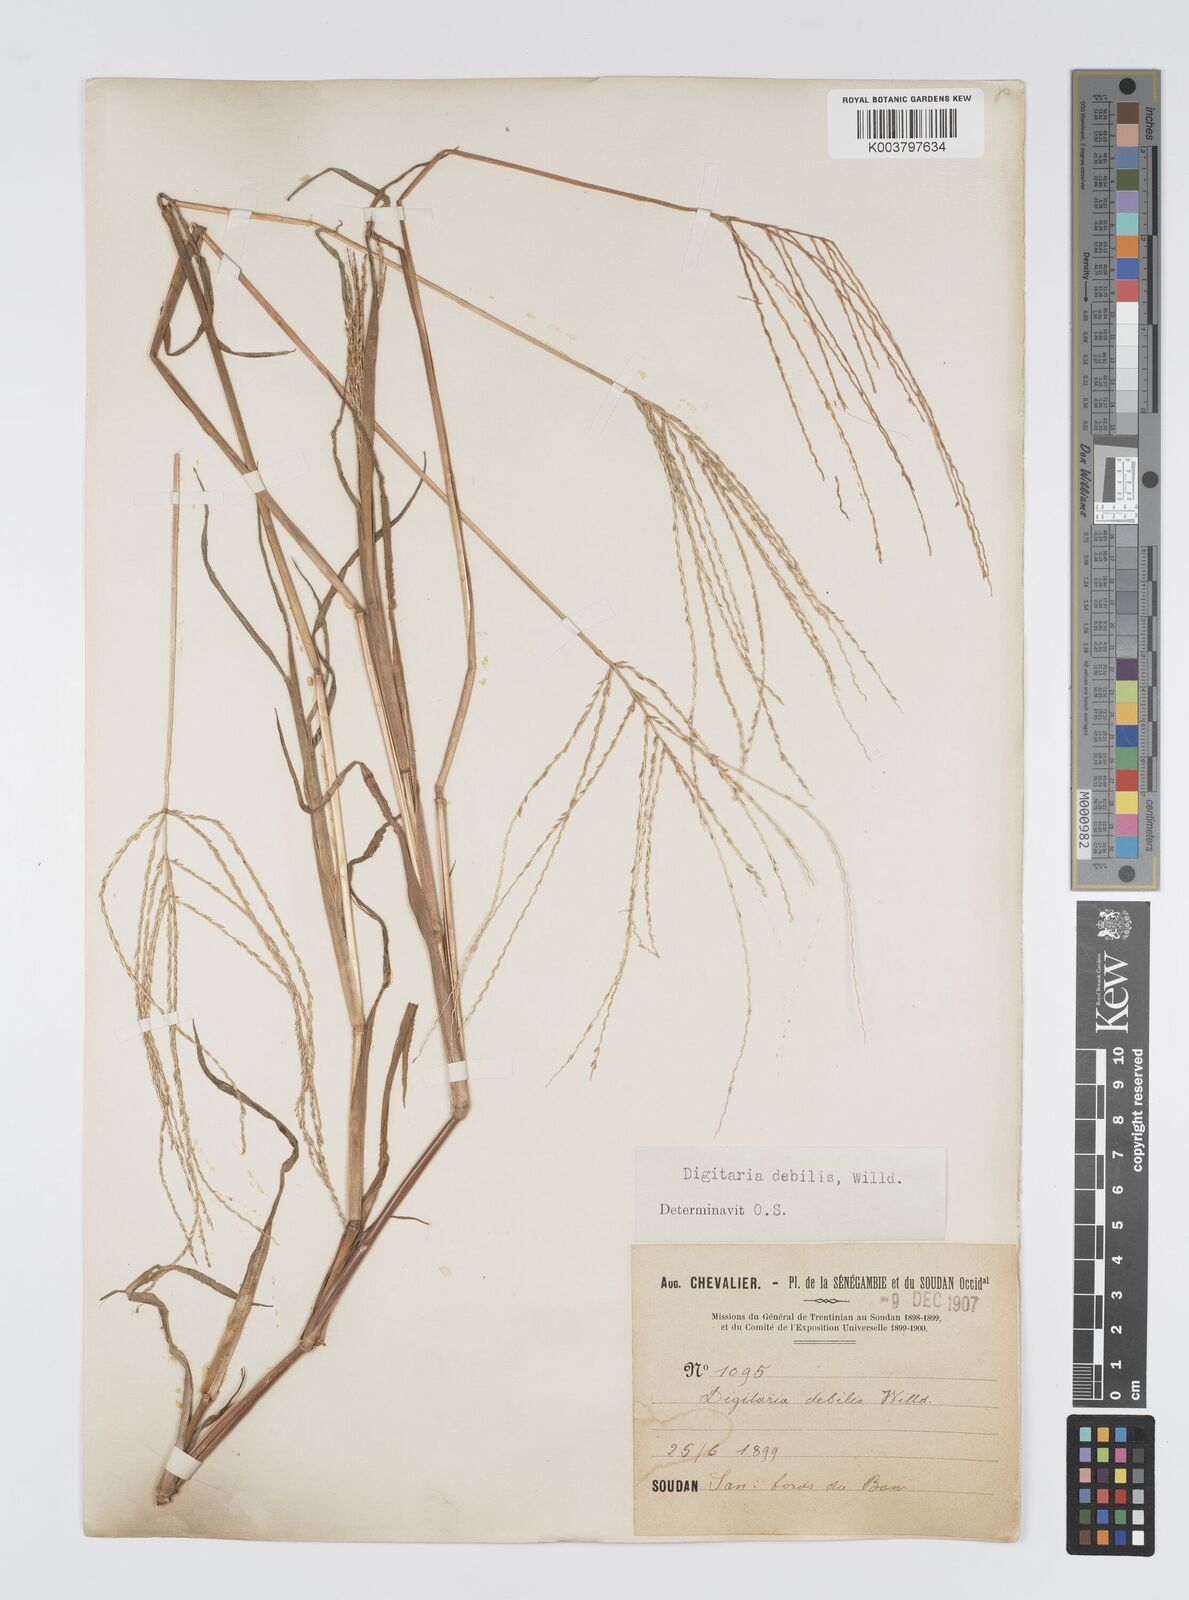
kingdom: Plantae
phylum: Tracheophyta
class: Liliopsida
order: Poales
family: Poaceae
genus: Digitaria
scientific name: Digitaria debilis
